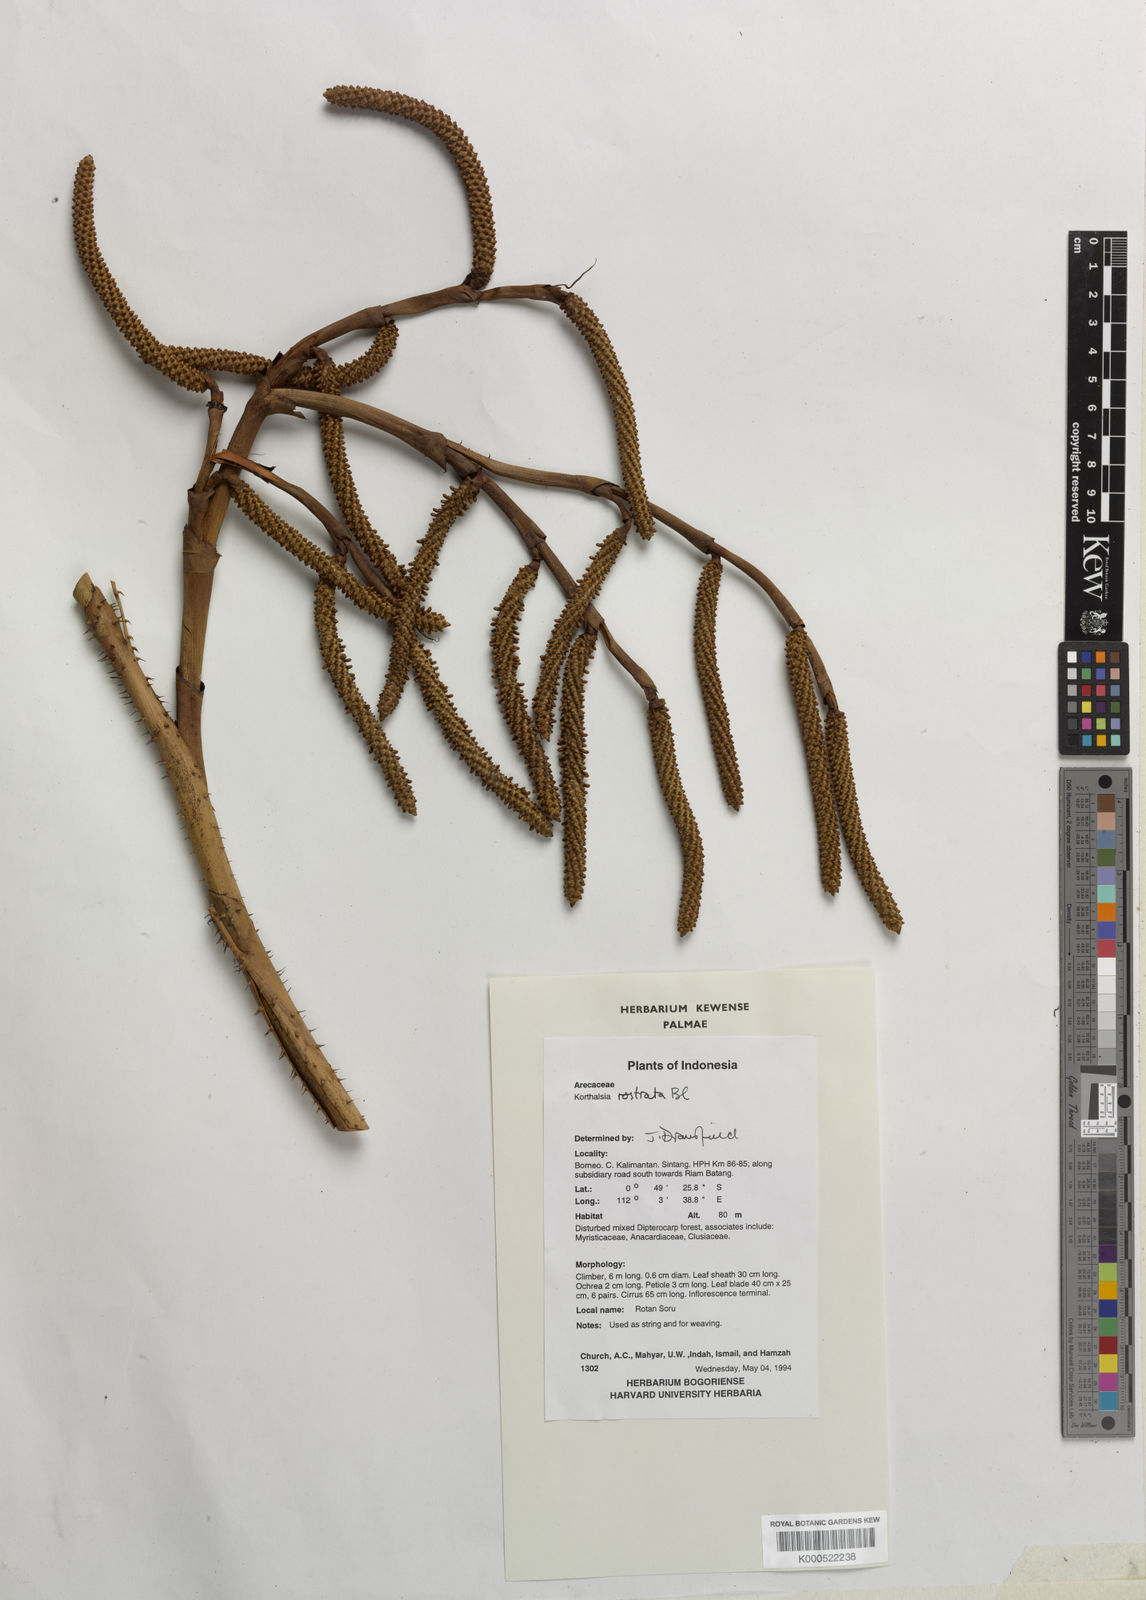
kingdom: Plantae
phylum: Tracheophyta
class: Liliopsida
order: Arecales
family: Arecaceae
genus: Korthalsia
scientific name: Korthalsia rostrata
